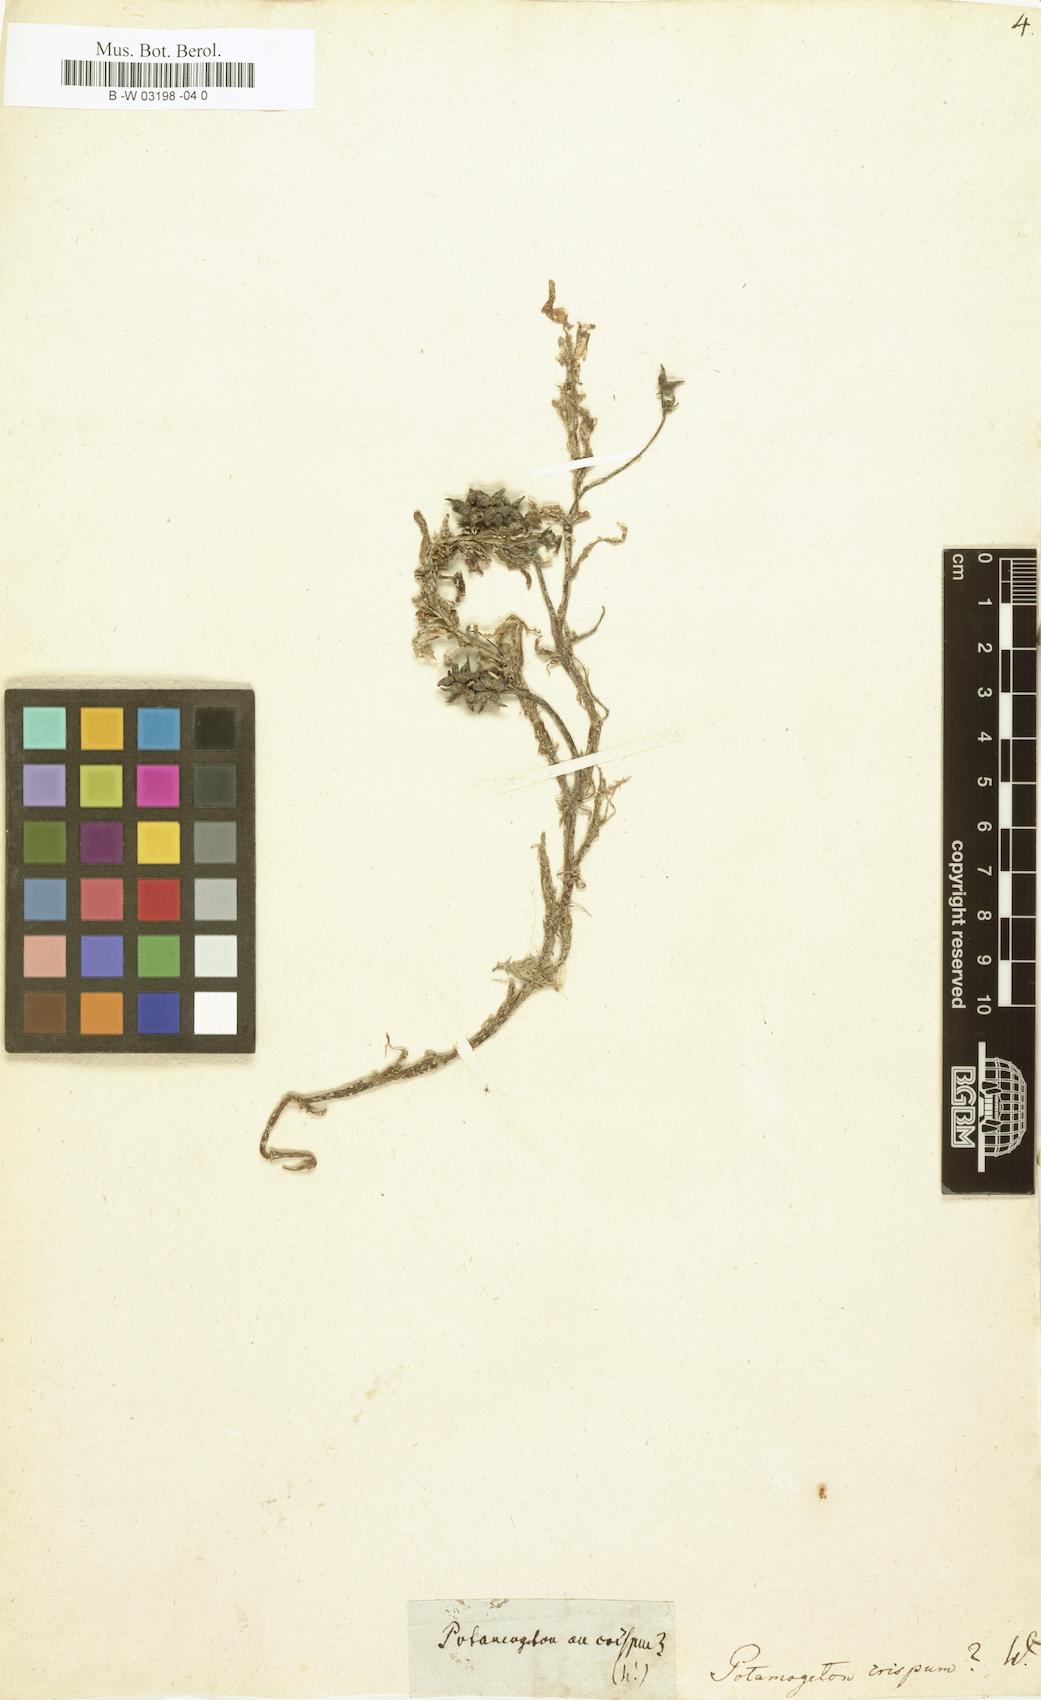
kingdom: Plantae
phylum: Tracheophyta
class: Liliopsida
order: Alismatales
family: Potamogetonaceae
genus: Potamogeton
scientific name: Potamogeton crispus
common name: Curled pondweed
